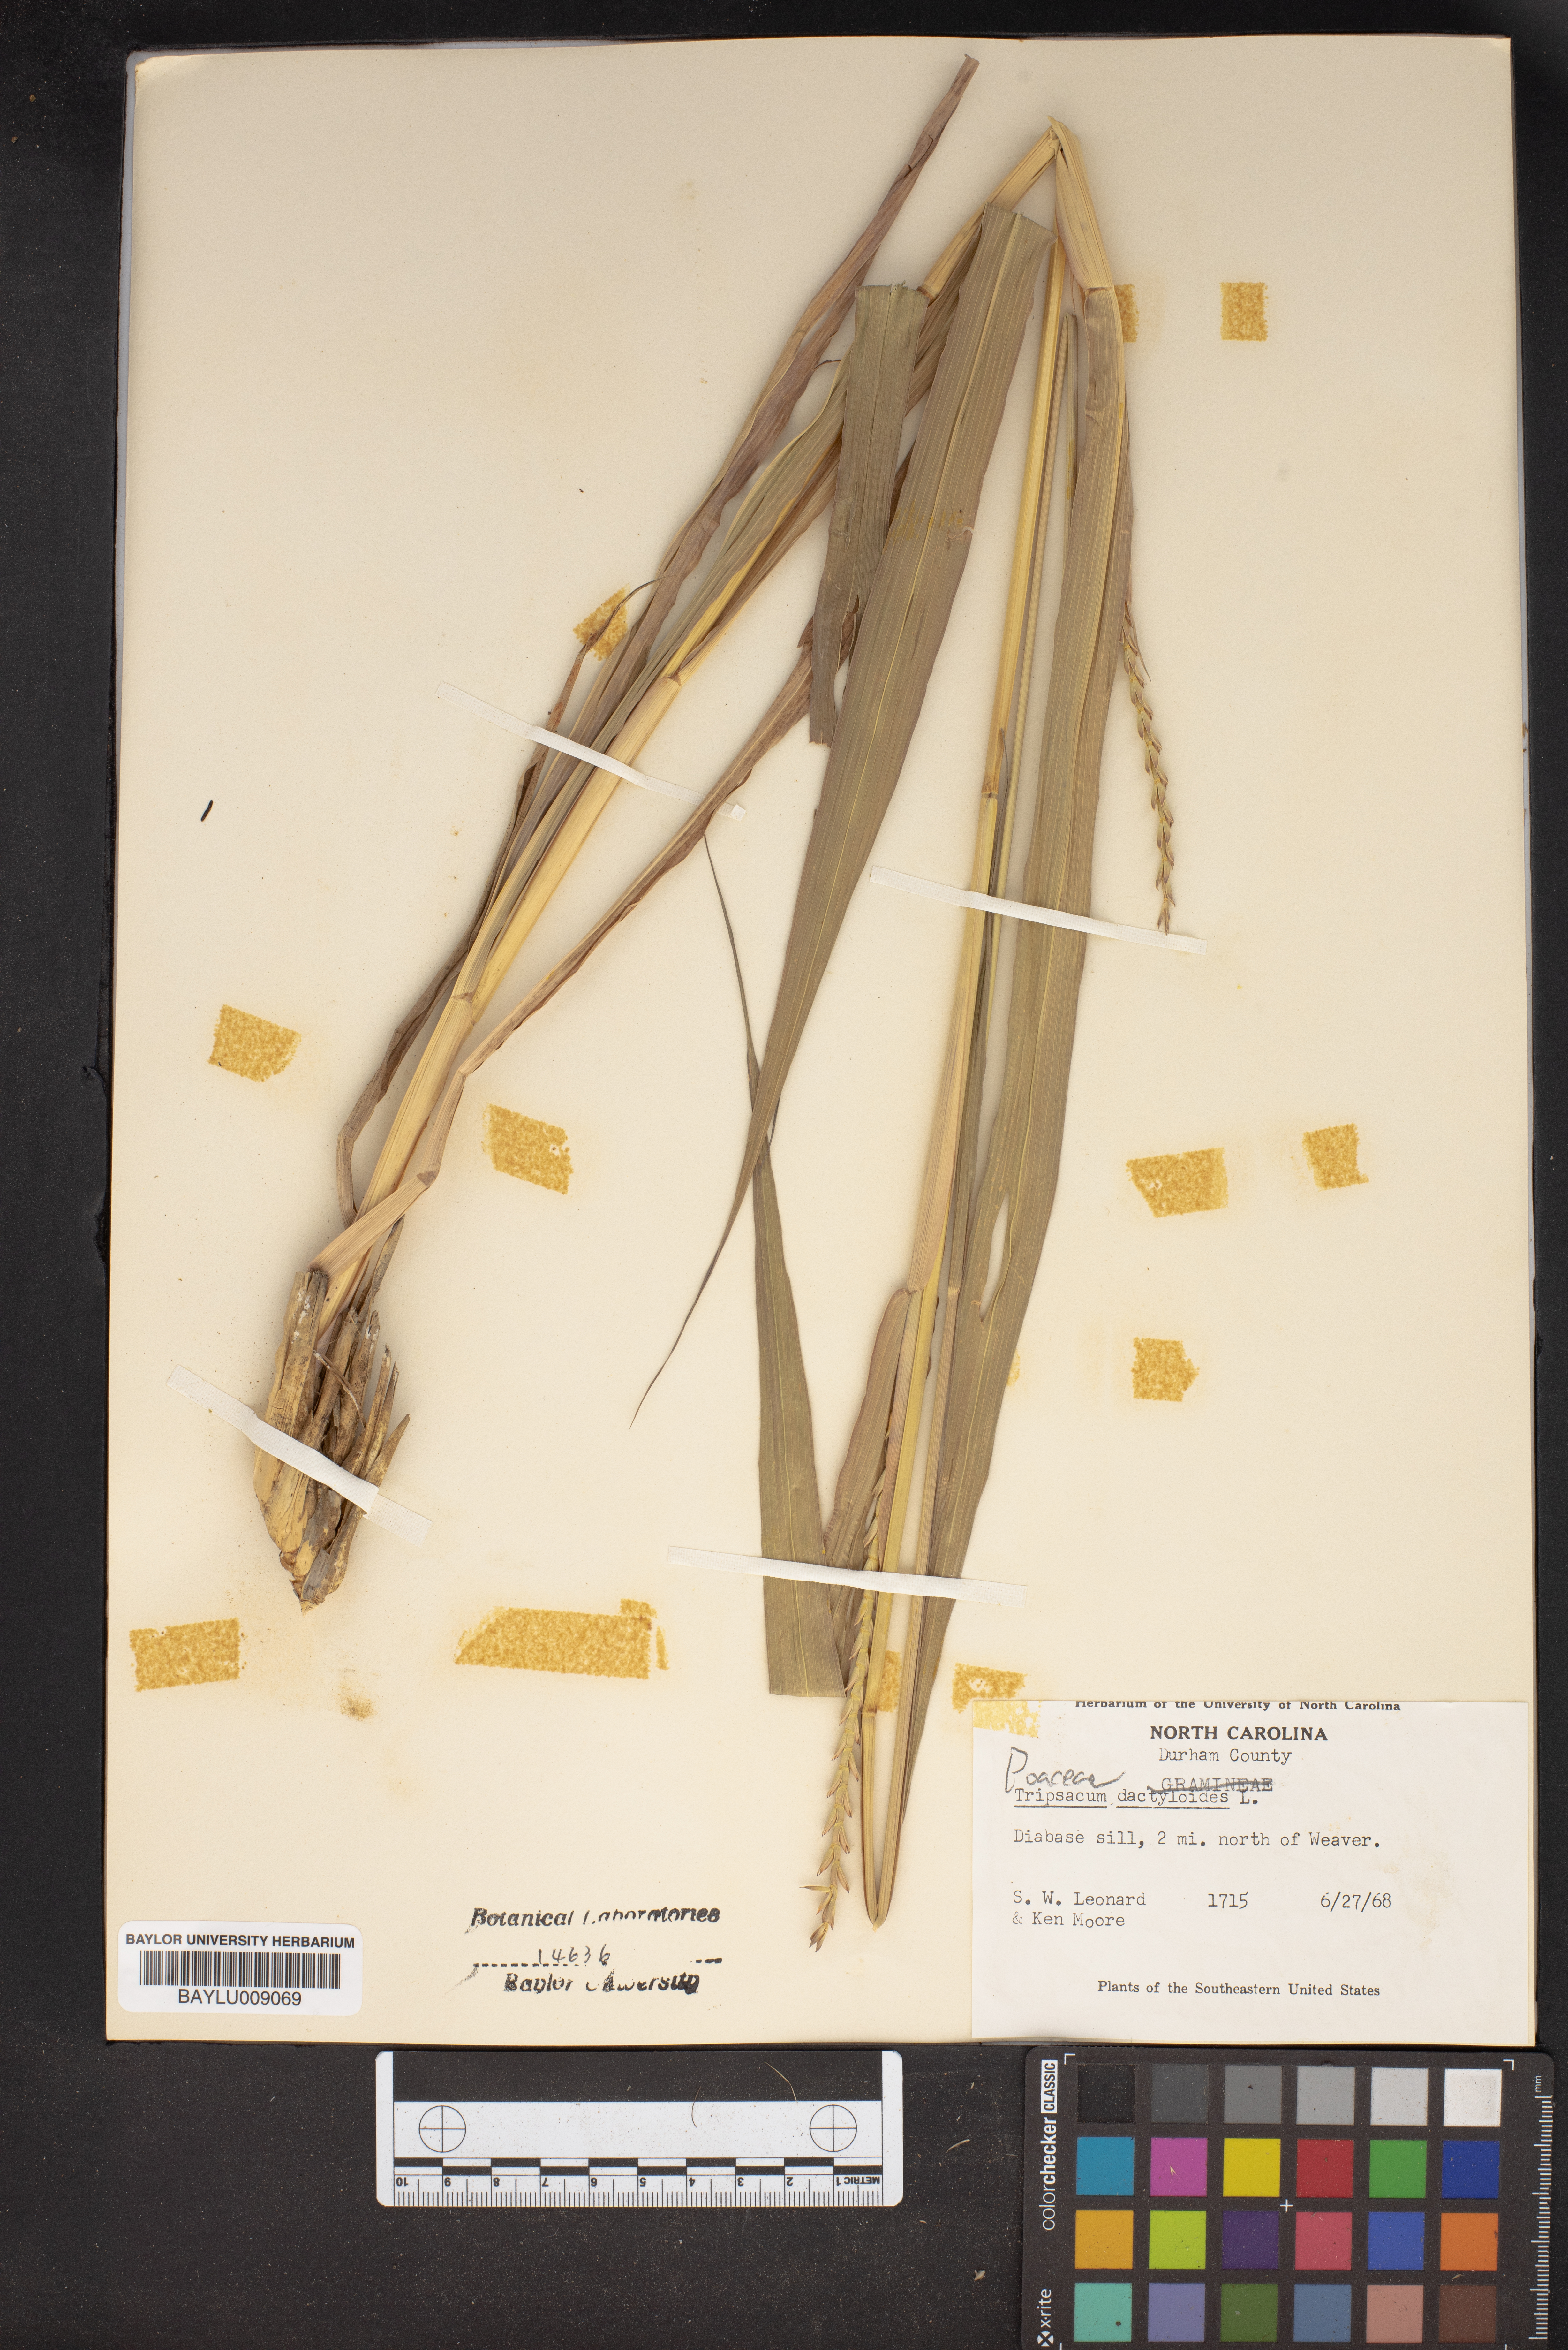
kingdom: Plantae
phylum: Tracheophyta
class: Liliopsida
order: Poales
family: Poaceae
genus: Tripsacum
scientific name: Tripsacum dactyloides
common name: Buffalo-grass
